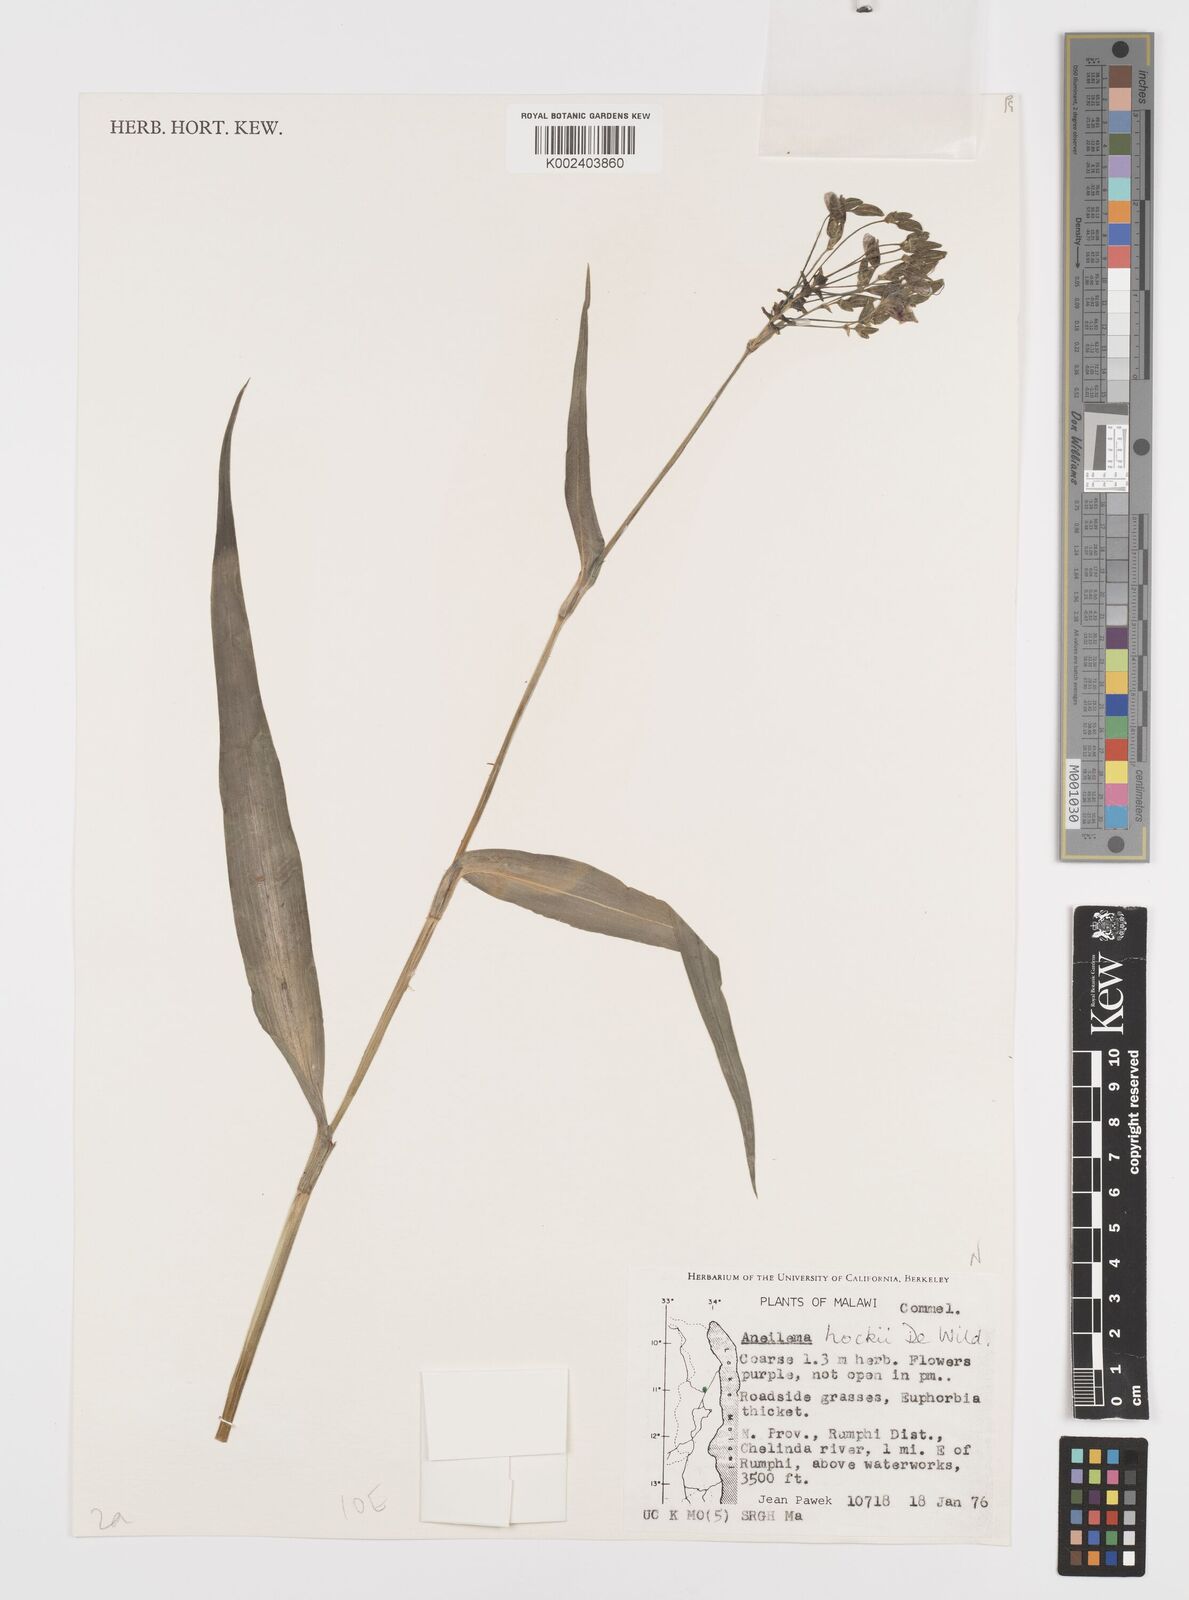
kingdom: Plantae
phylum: Tracheophyta
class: Liliopsida
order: Commelinales
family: Commelinaceae
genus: Aneilema
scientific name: Aneilema hockii
